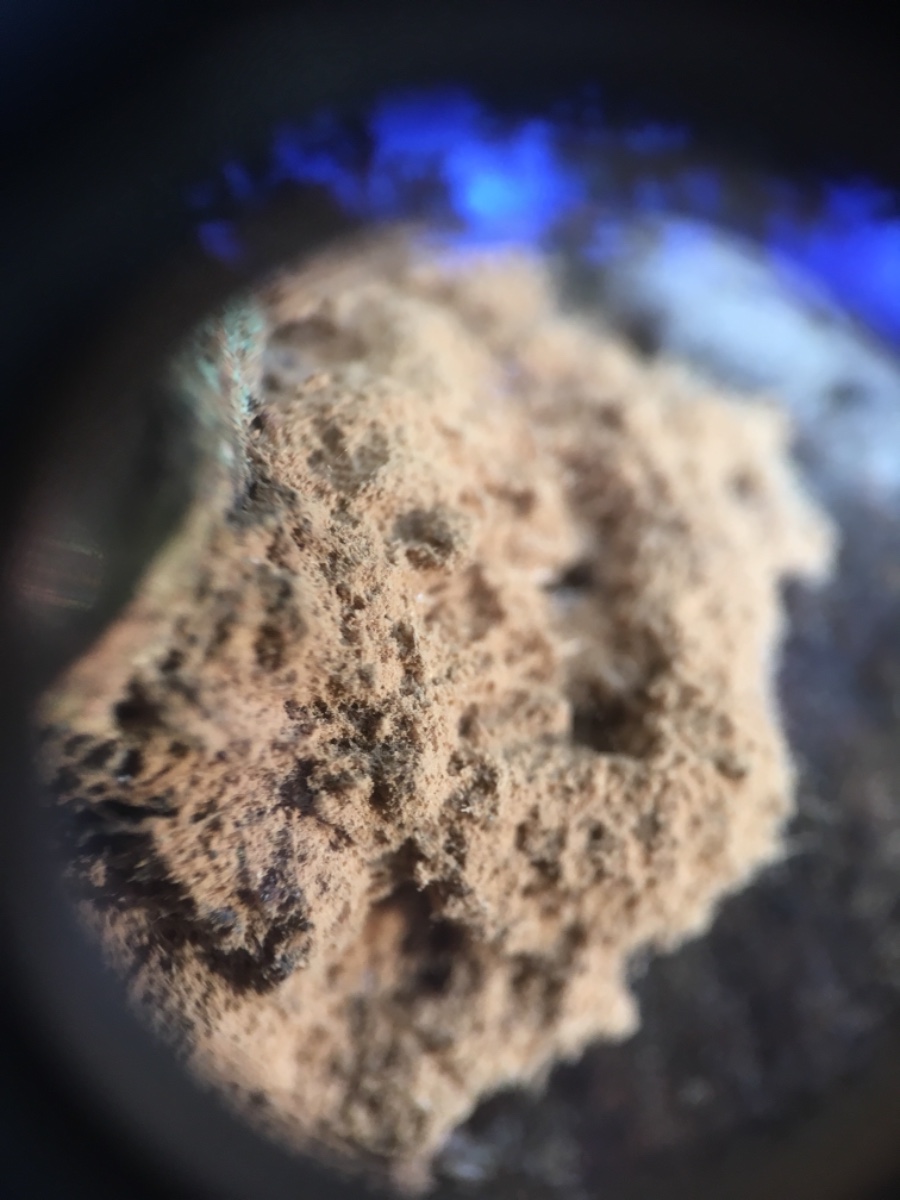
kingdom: Protozoa
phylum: Mycetozoa
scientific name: Mycetozoa
